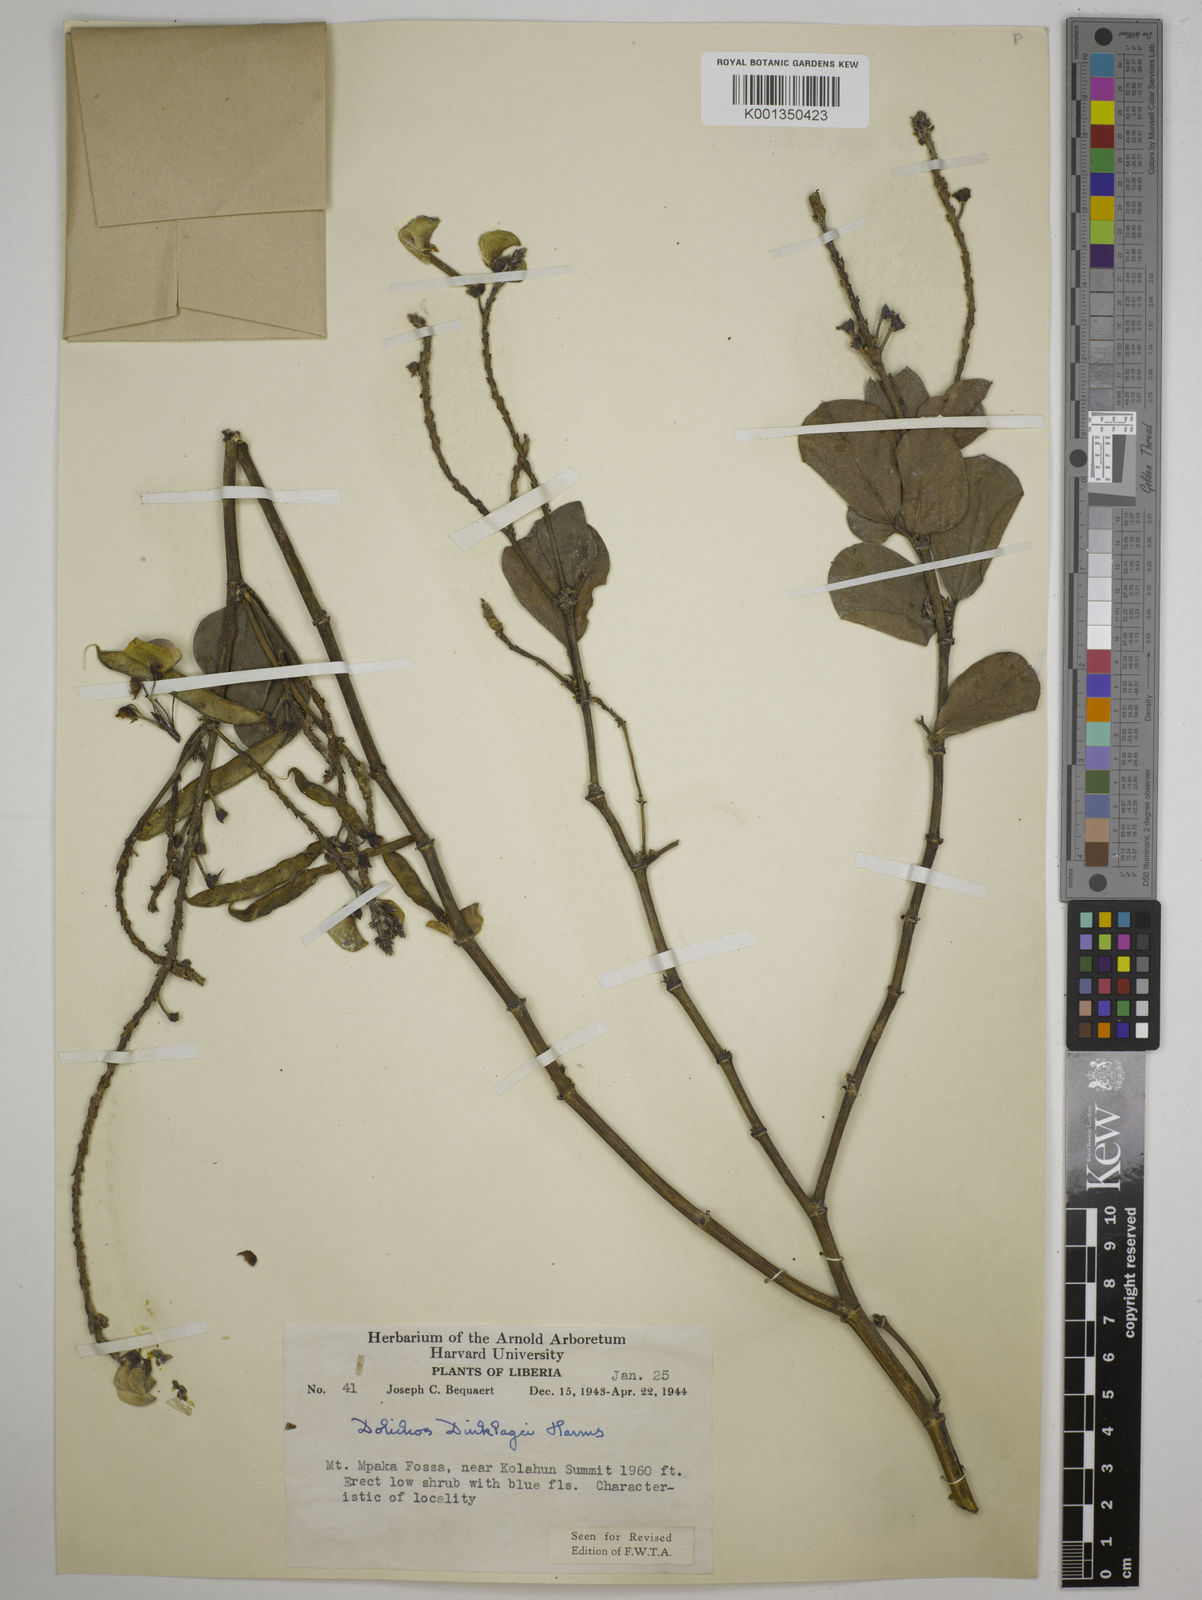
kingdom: Plantae
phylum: Tracheophyta
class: Magnoliopsida
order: Fabales
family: Fabaceae
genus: Dolichos
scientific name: Dolichos dinklagei
